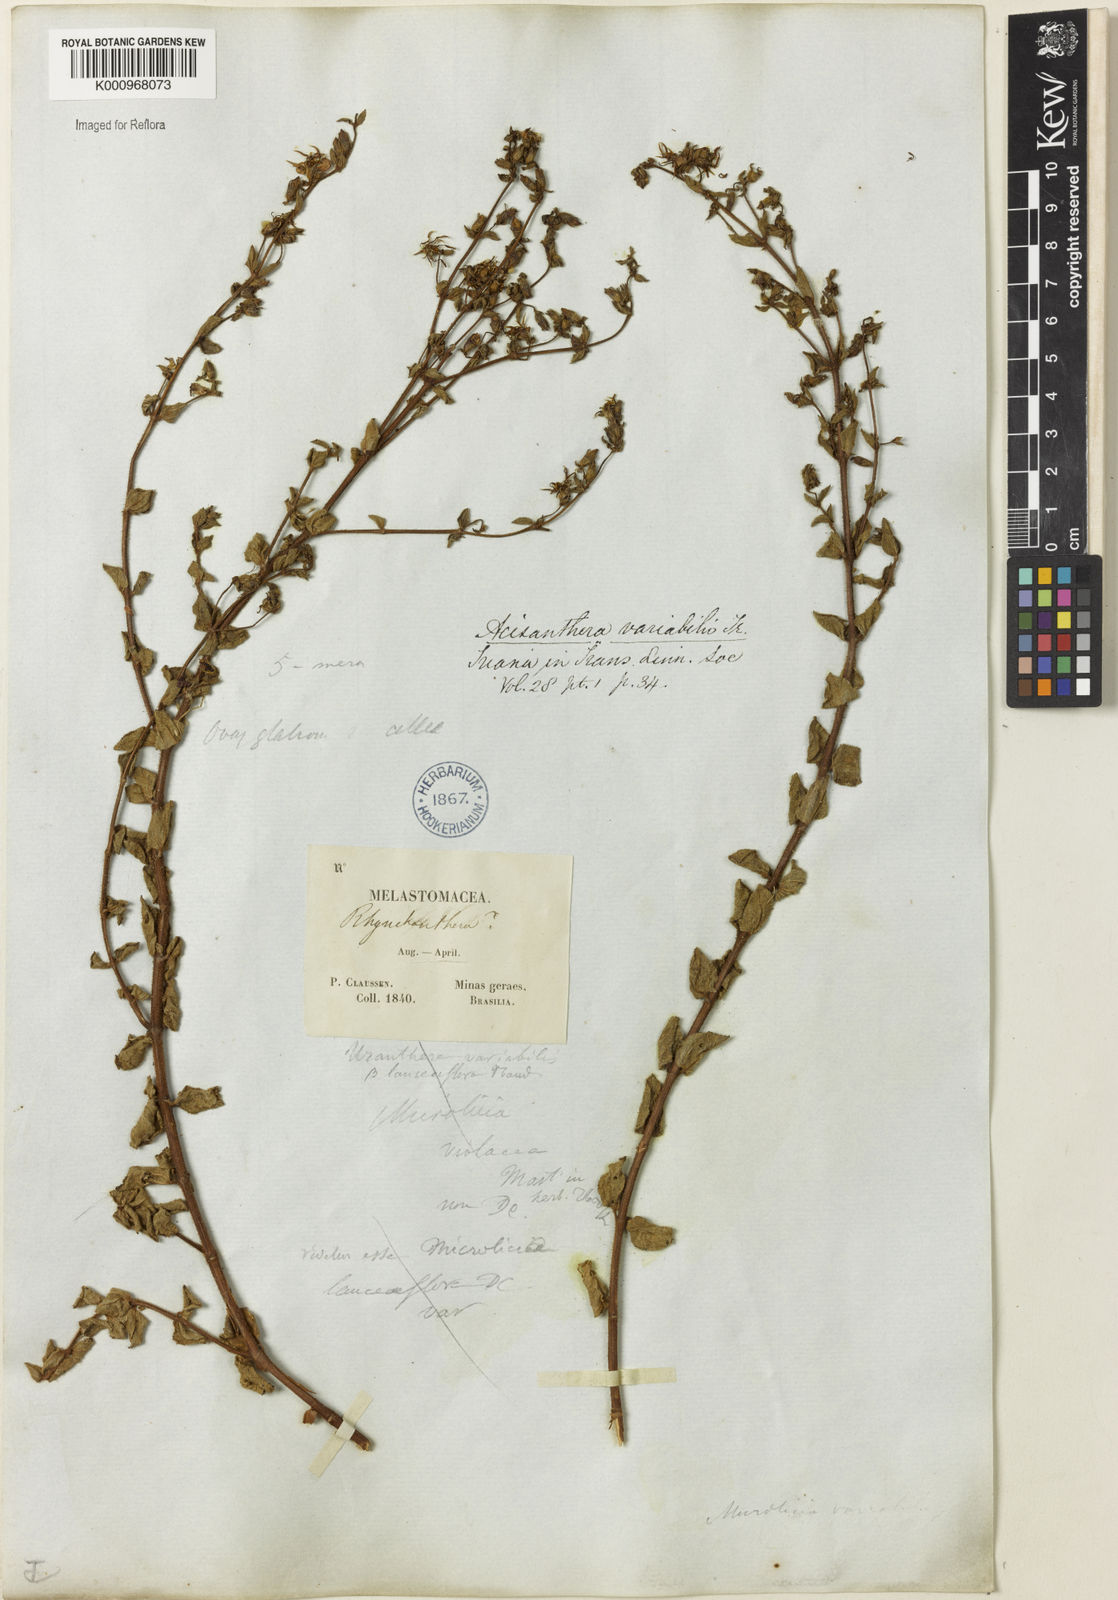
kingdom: Plantae
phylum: Tracheophyta
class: Magnoliopsida
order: Myrtales
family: Melastomataceae
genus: Acisanthera
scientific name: Acisanthera variabilis
